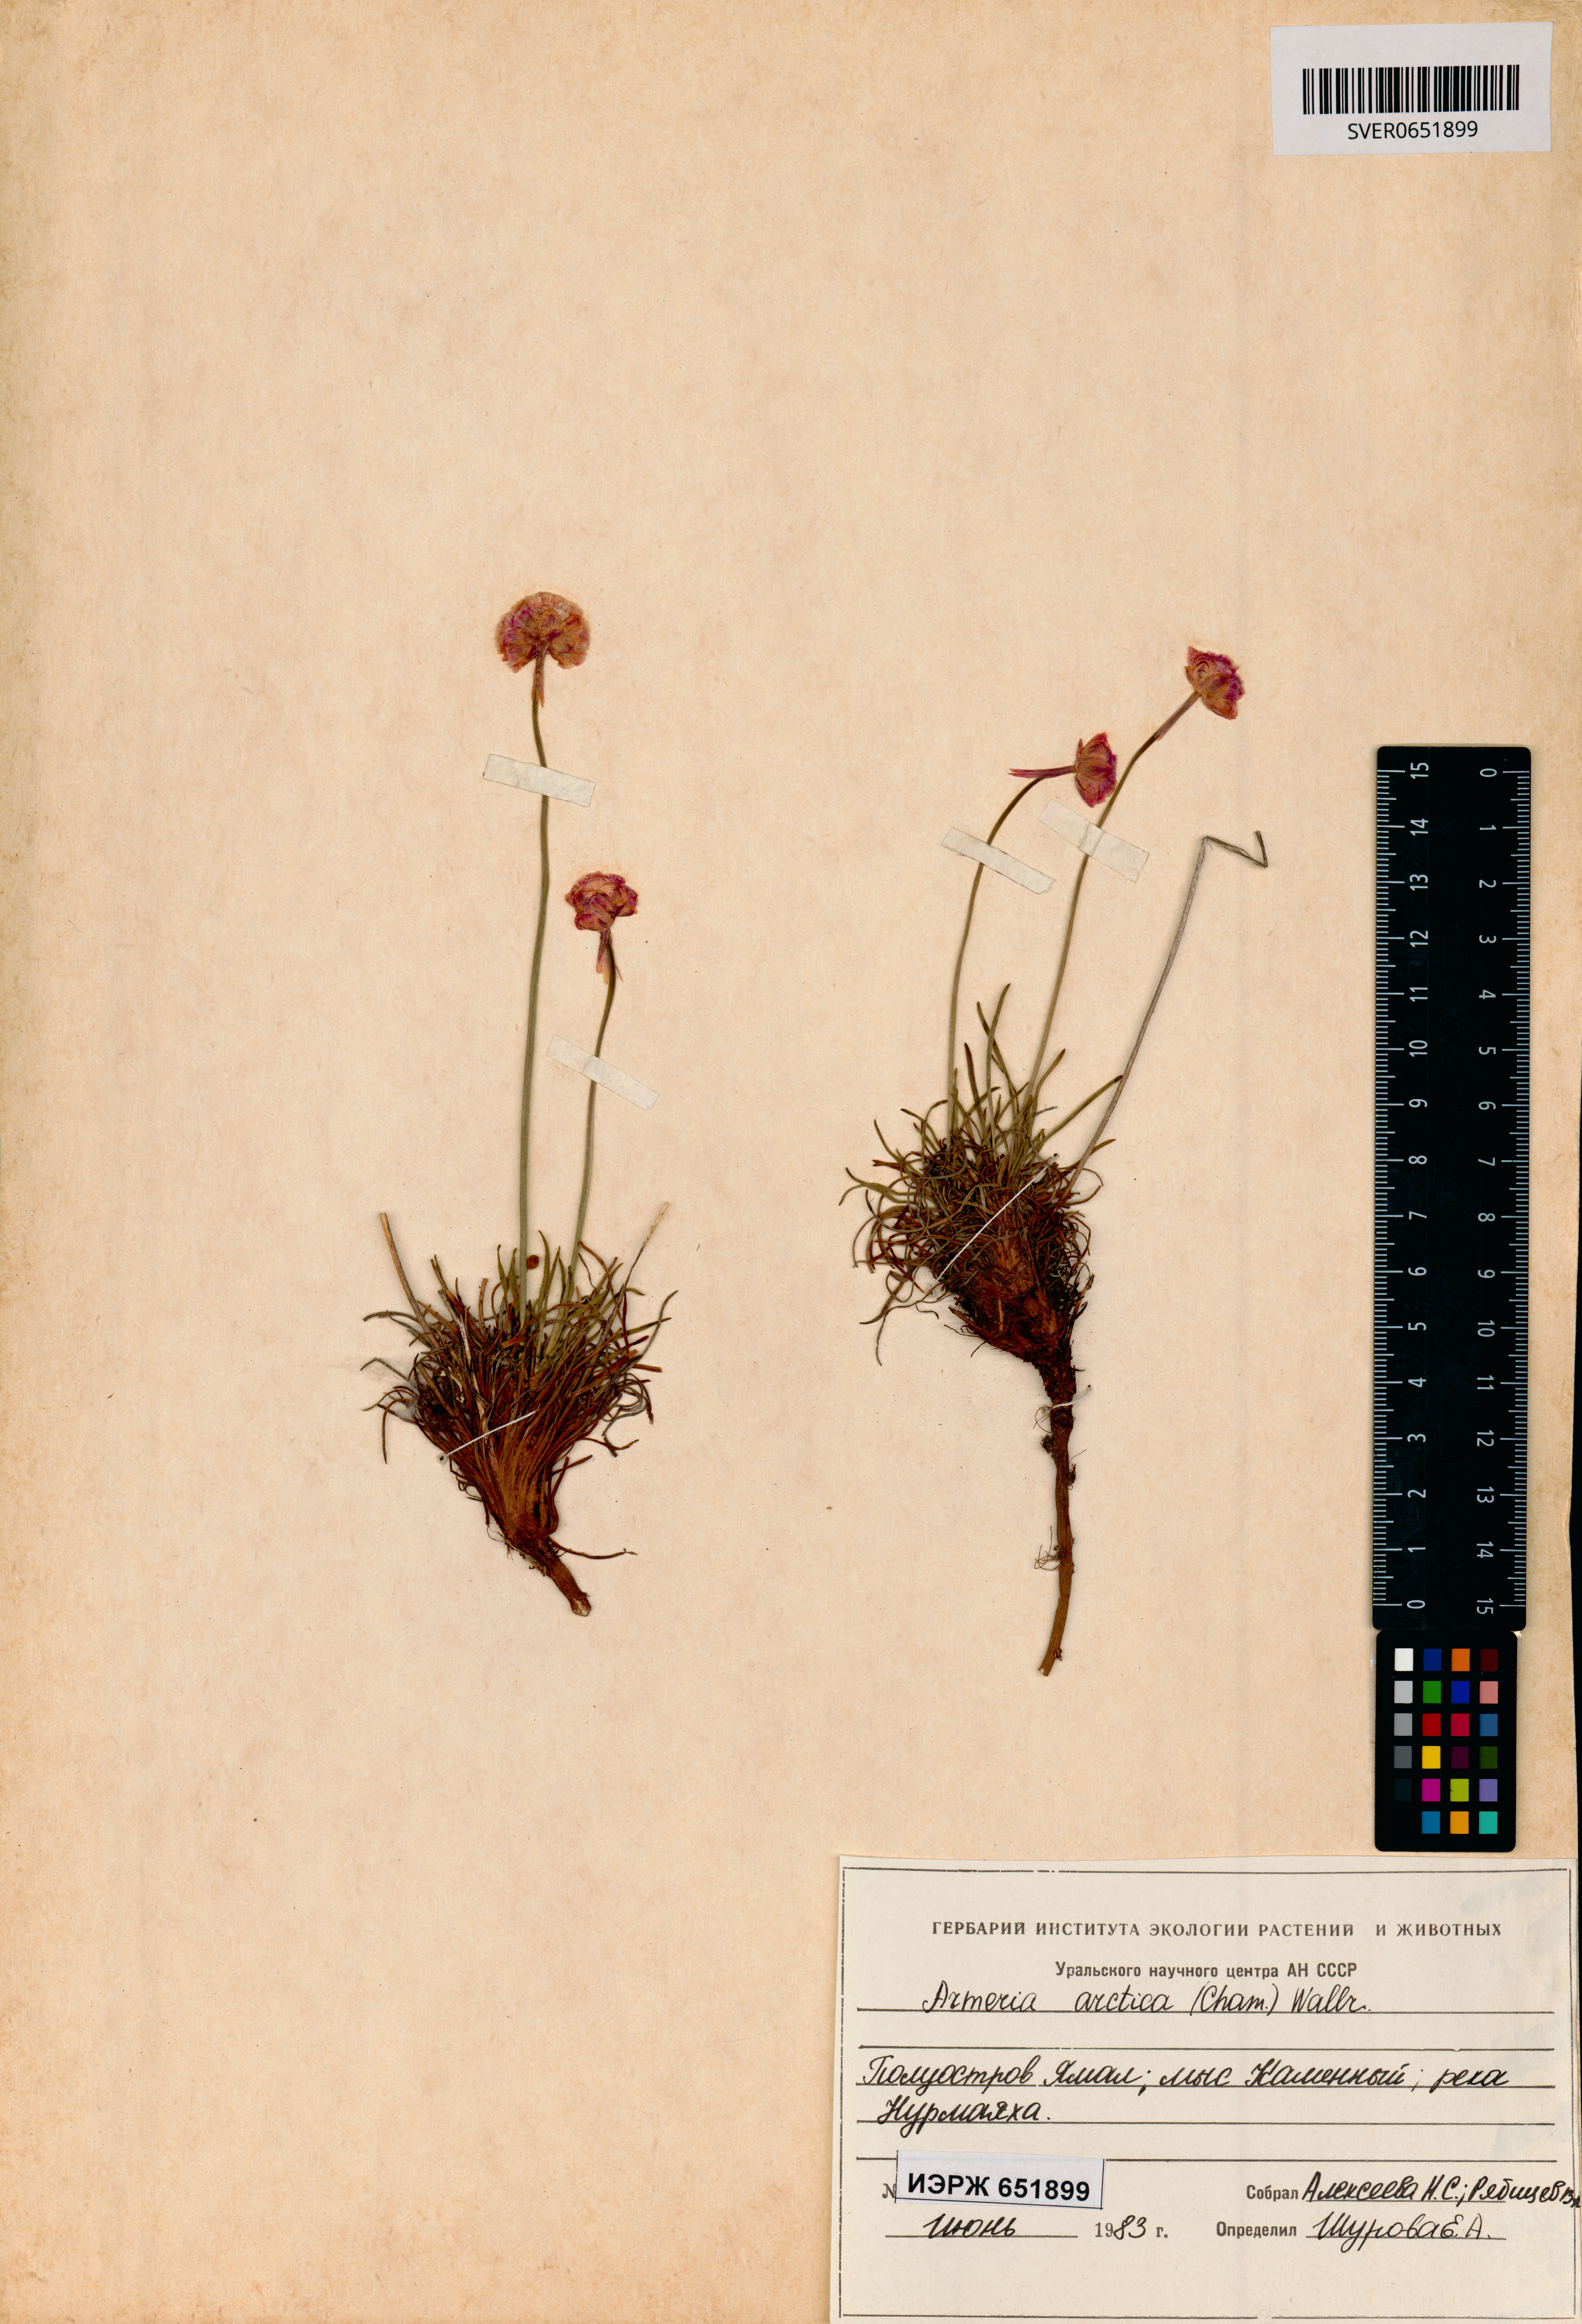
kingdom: Plantae
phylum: Tracheophyta
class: Magnoliopsida
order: Caryophyllales
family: Plumbaginaceae
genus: Armeria
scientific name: Armeria maritima
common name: Thrift
